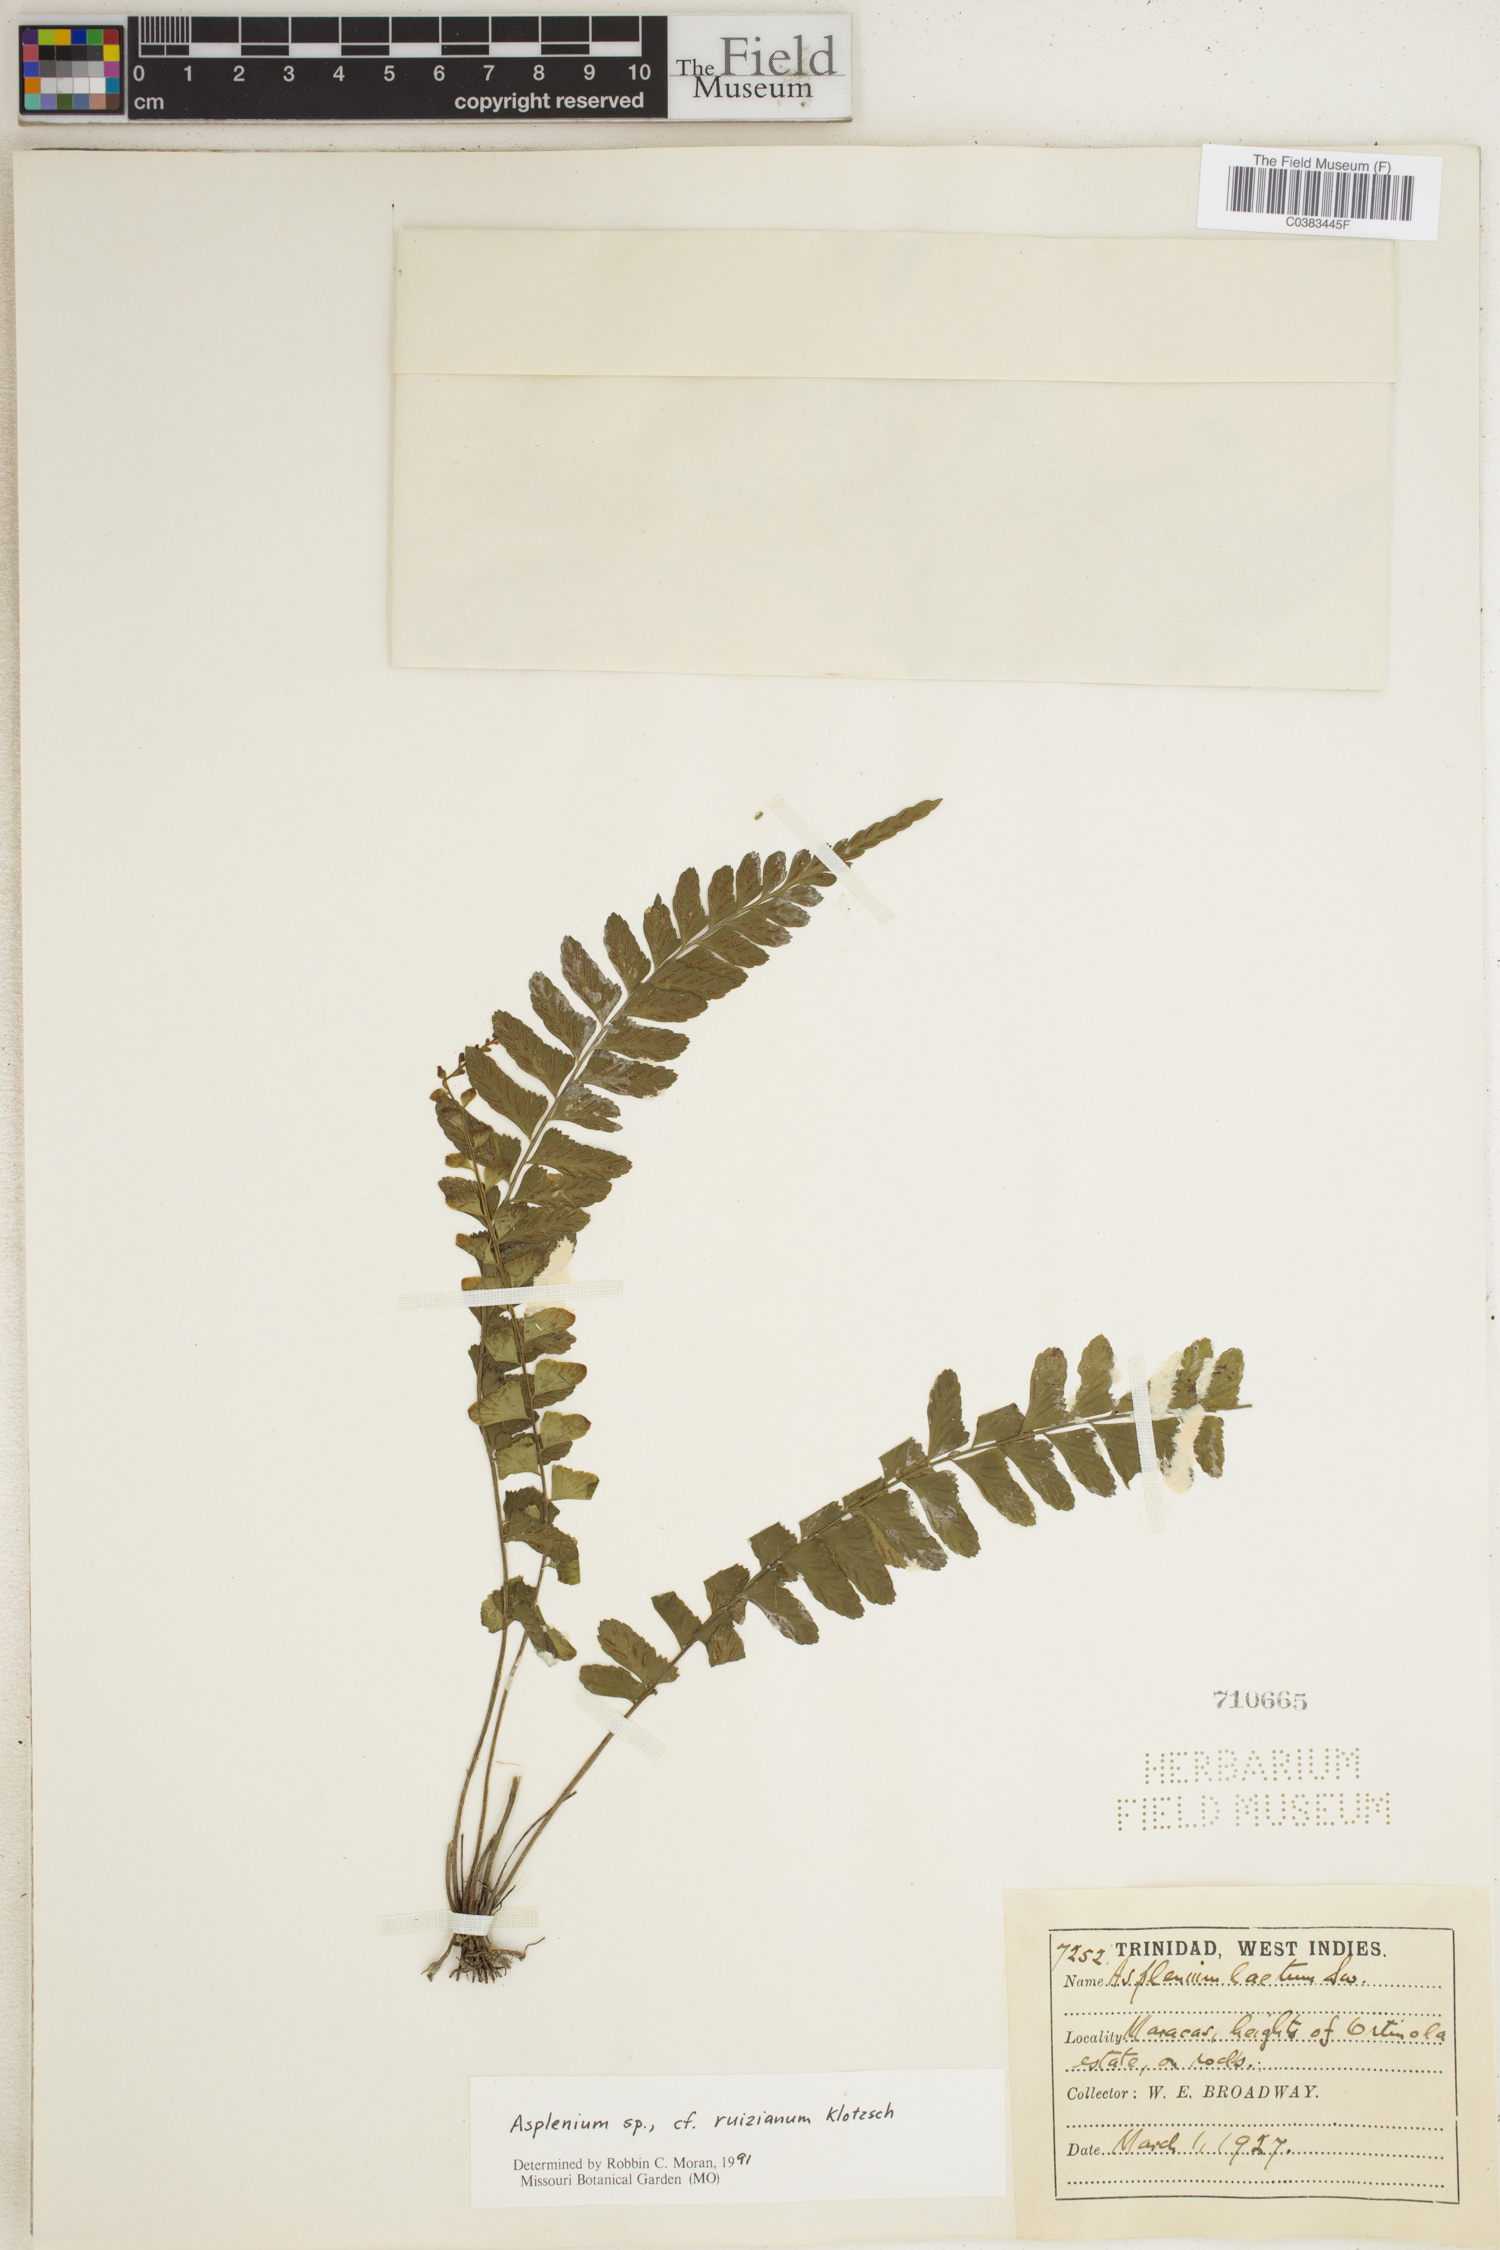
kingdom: Plantae
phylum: Tracheophyta
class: Polypodiopsida
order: Polypodiales
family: Aspleniaceae
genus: Asplenium
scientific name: Asplenium ruizianum
